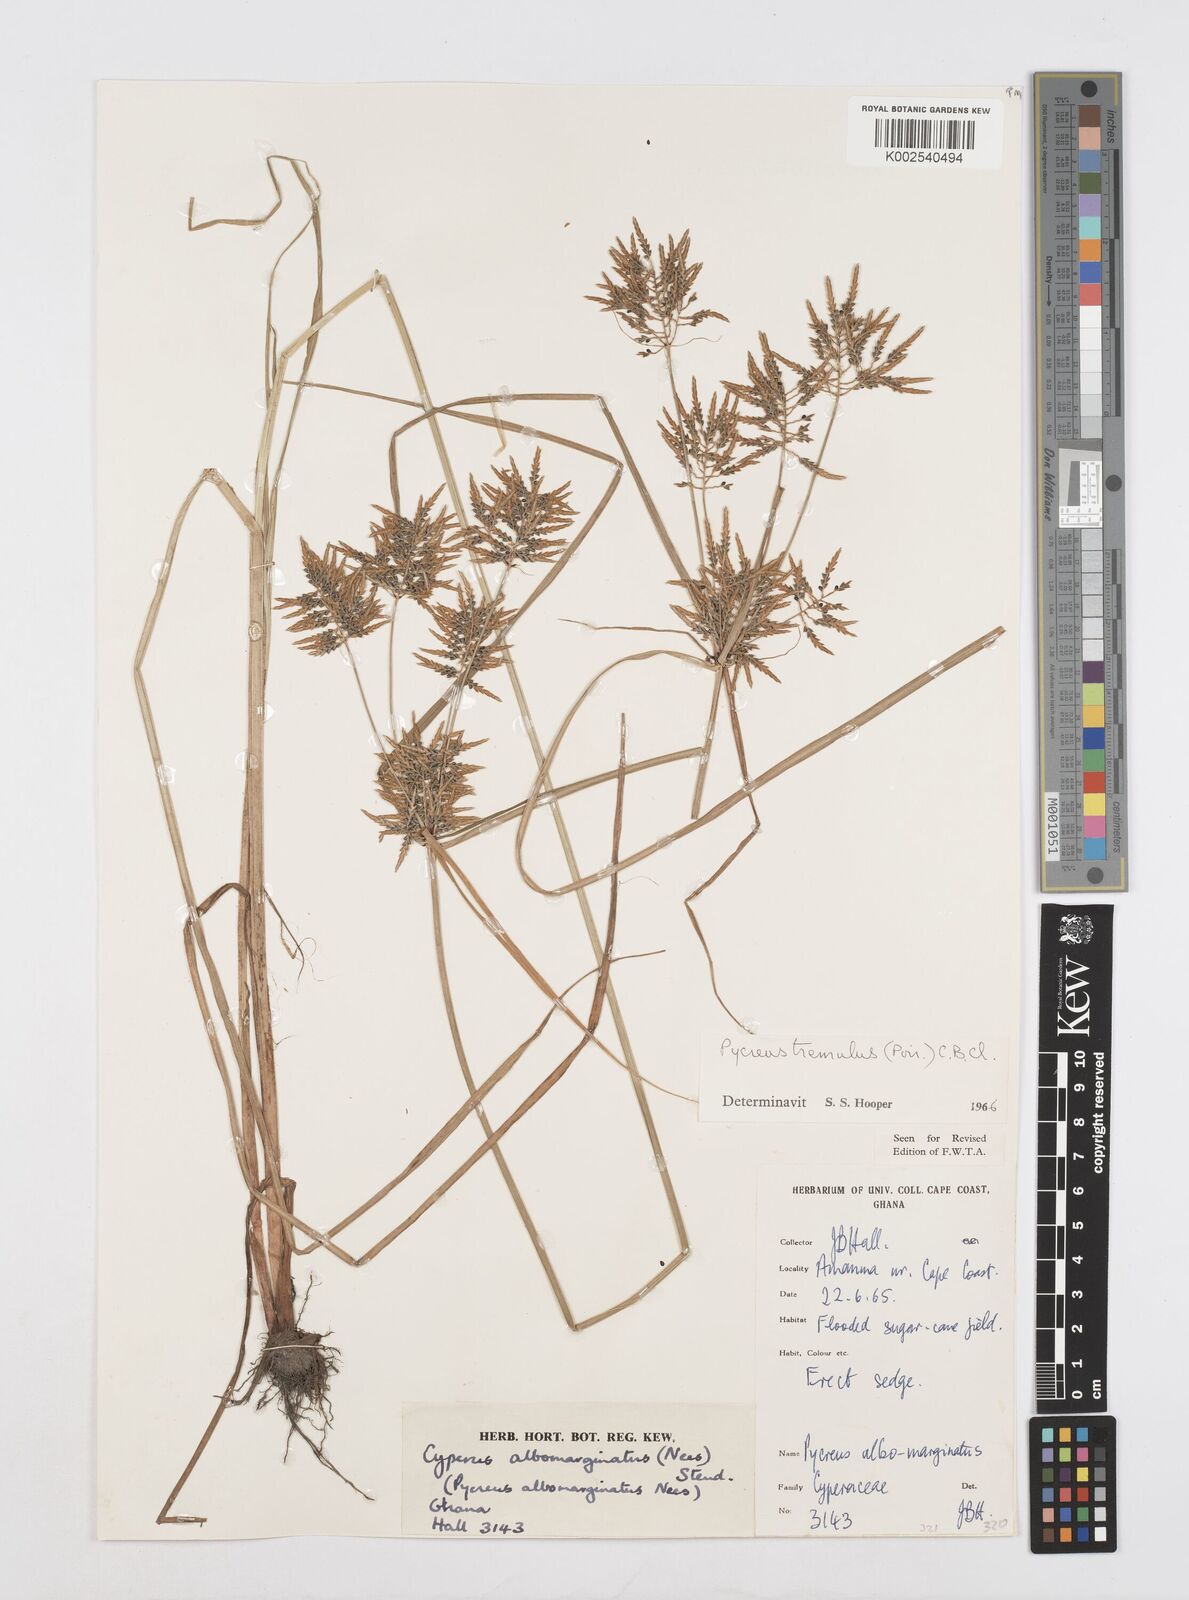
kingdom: Plantae
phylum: Tracheophyta
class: Liliopsida
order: Poales
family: Cyperaceae
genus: Cyperus
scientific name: Cyperus macrostachyos
